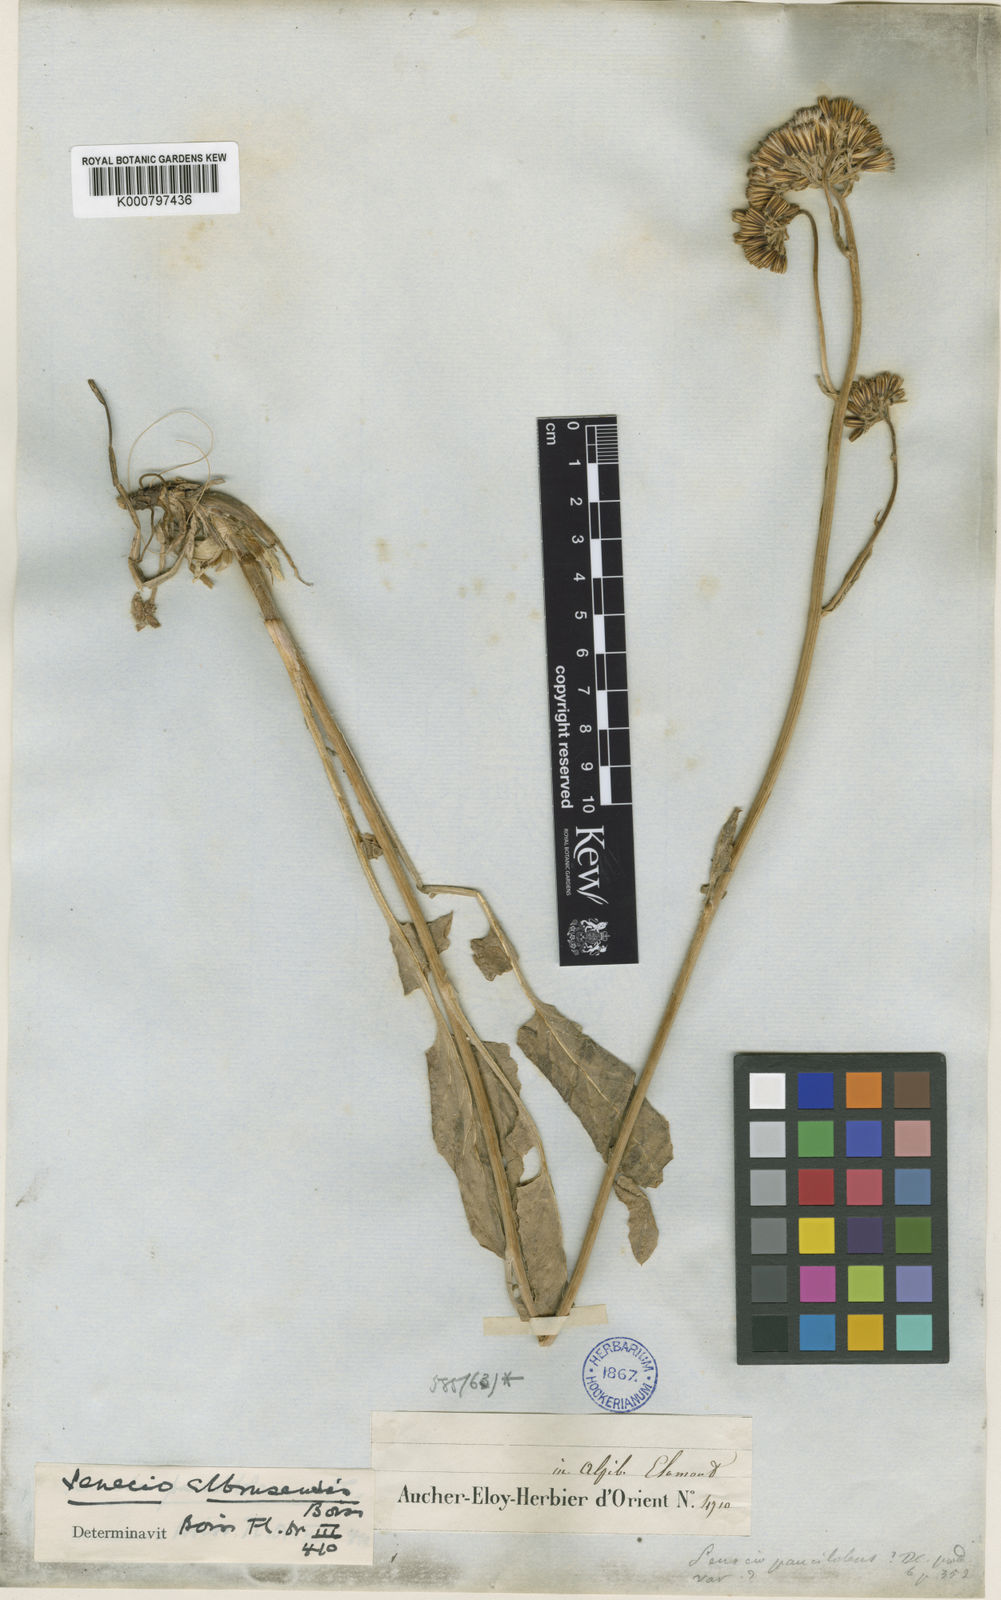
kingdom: Plantae
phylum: Tracheophyta
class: Magnoliopsida
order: Asterales
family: Asteraceae
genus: Iranecio
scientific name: Iranecio elbrusensis
